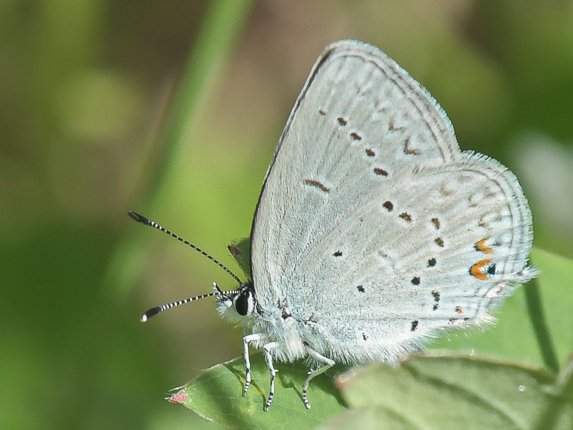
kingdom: Animalia
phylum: Arthropoda
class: Insecta
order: Lepidoptera
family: Lycaenidae
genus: Elkalyce
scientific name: Elkalyce amyntula
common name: Western Tailed-Blue
